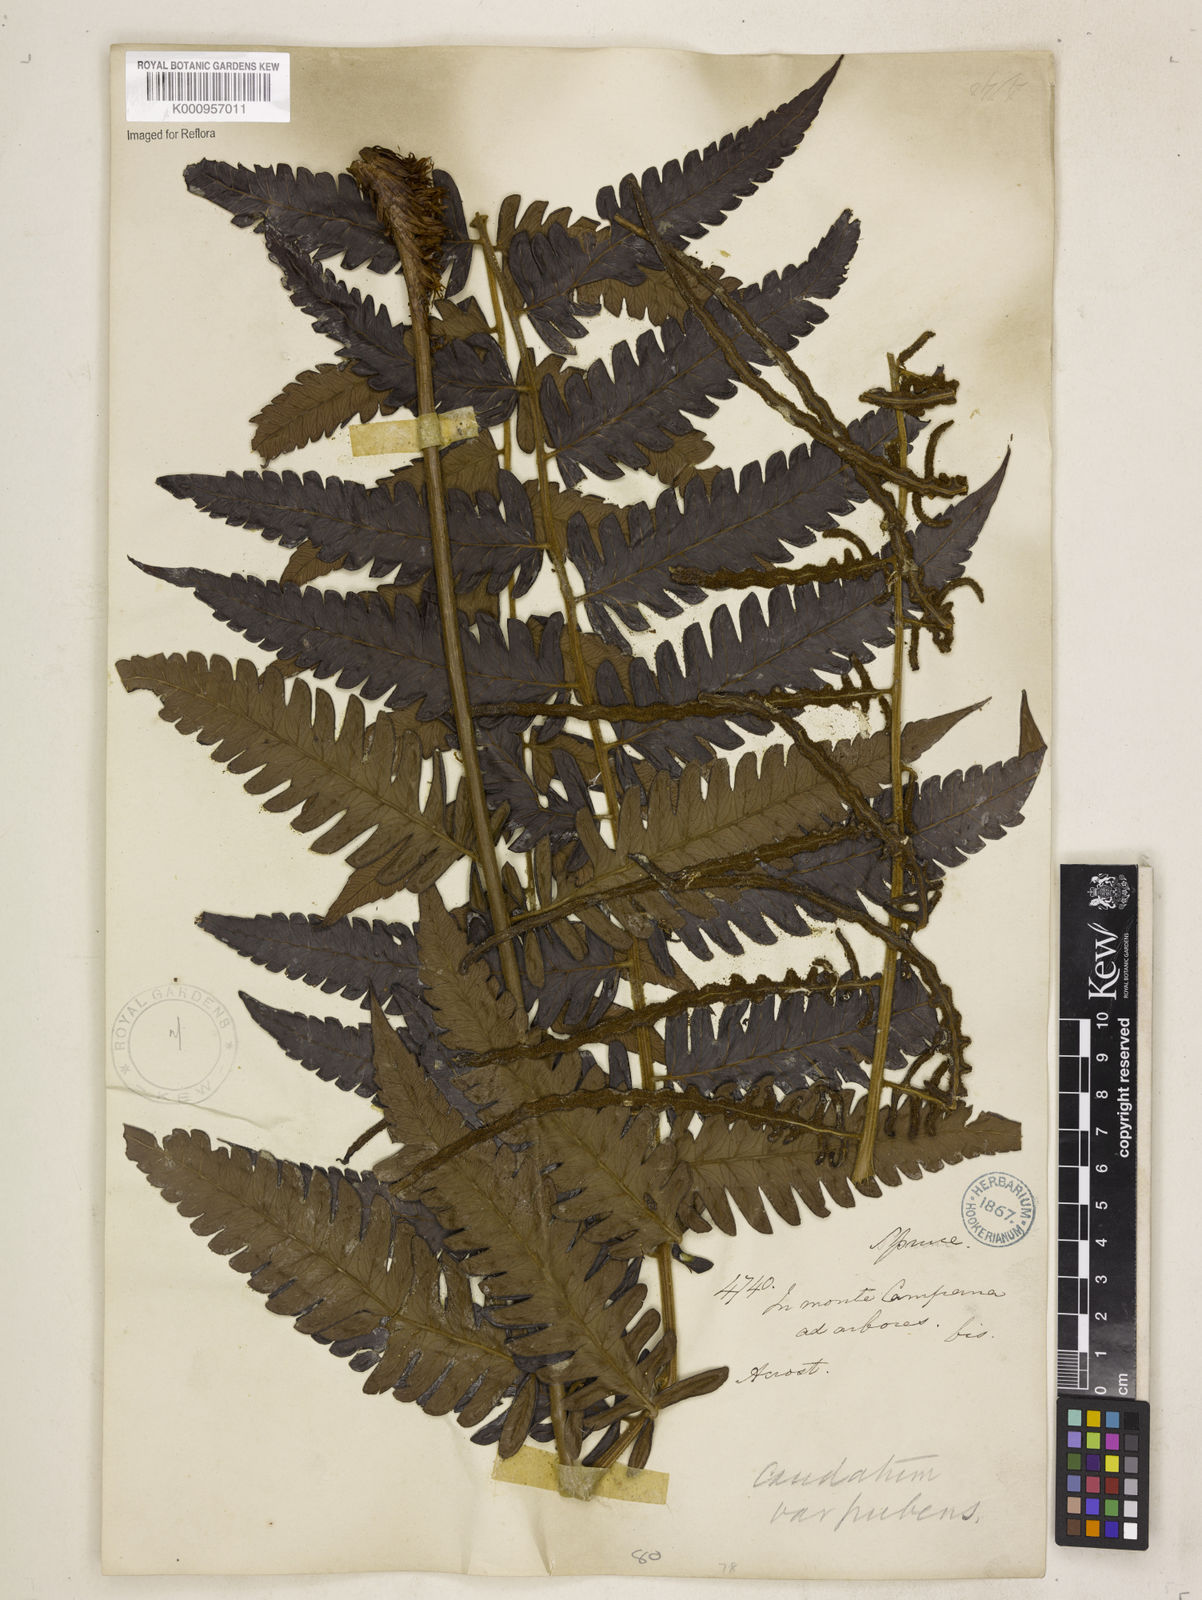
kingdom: Plantae
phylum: Tracheophyta
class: Polypodiopsida
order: Polypodiales
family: Dryopteridaceae
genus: Polybotrya
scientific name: Polybotrya caudata
